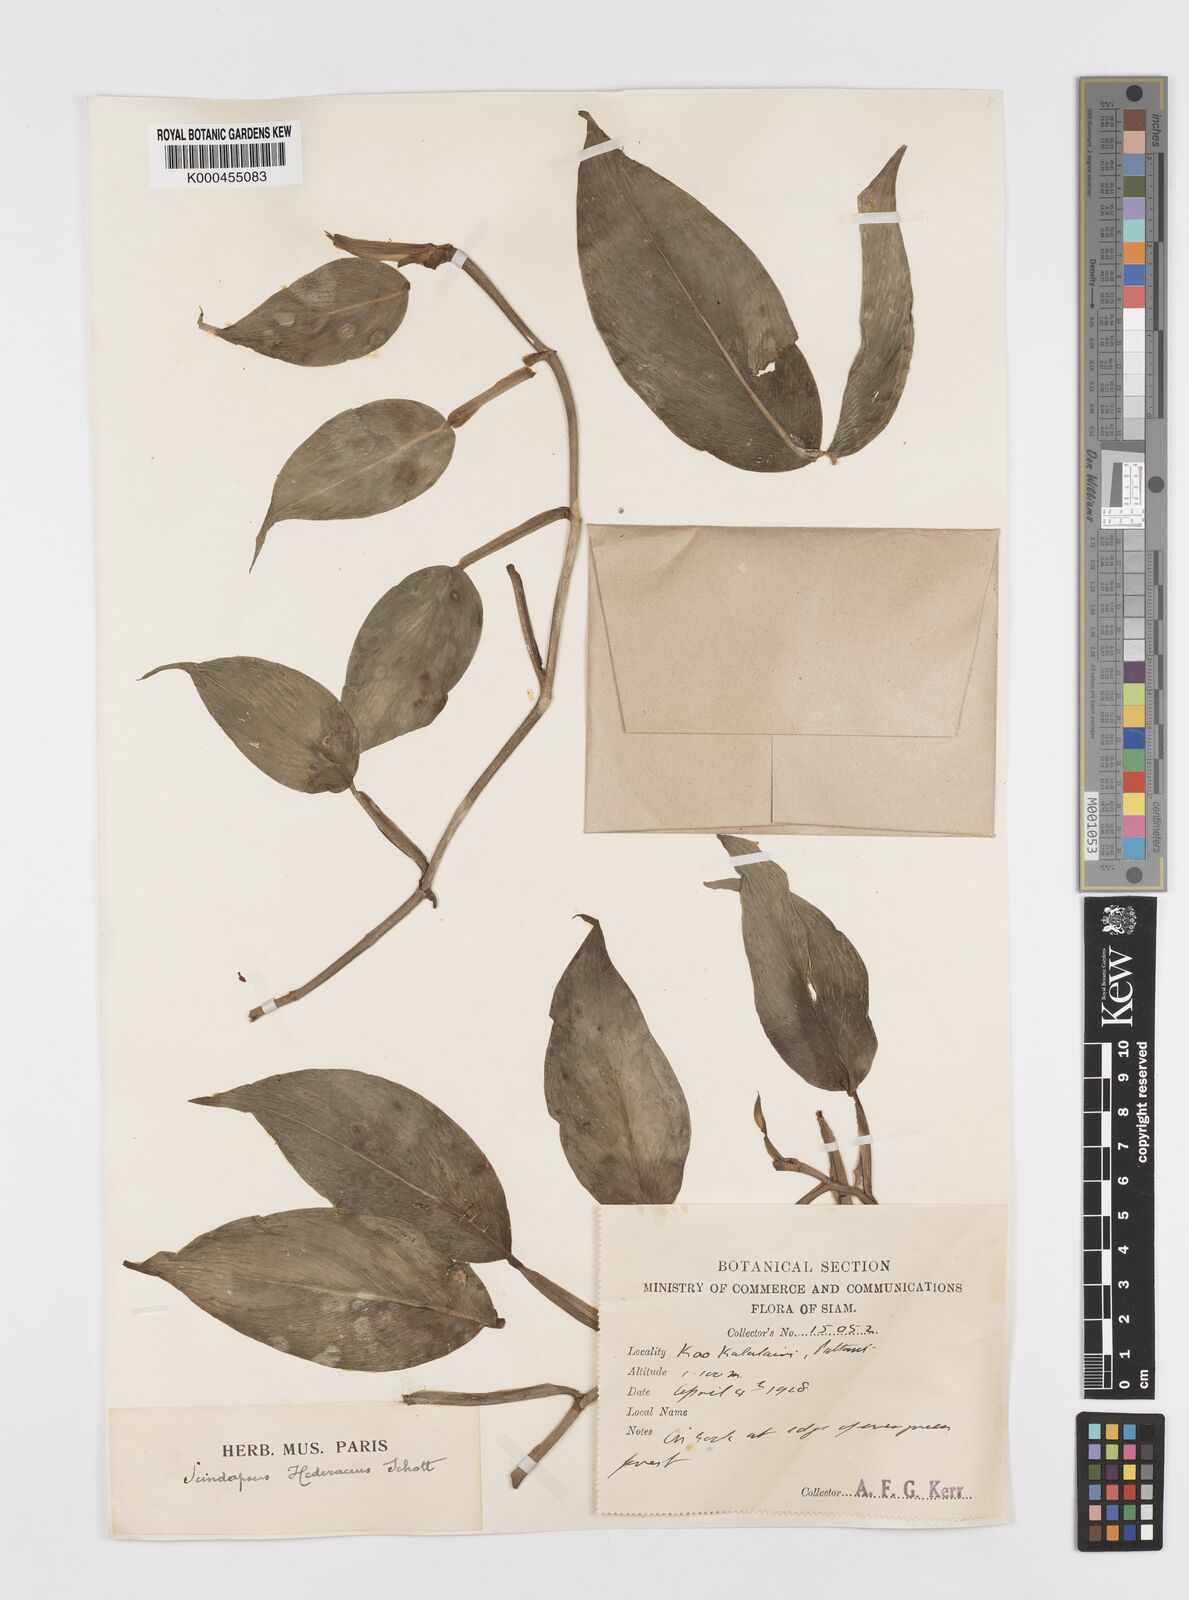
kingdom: Plantae
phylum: Tracheophyta
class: Liliopsida
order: Alismatales
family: Araceae
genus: Scindapsus
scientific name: Scindapsus hederaceus
